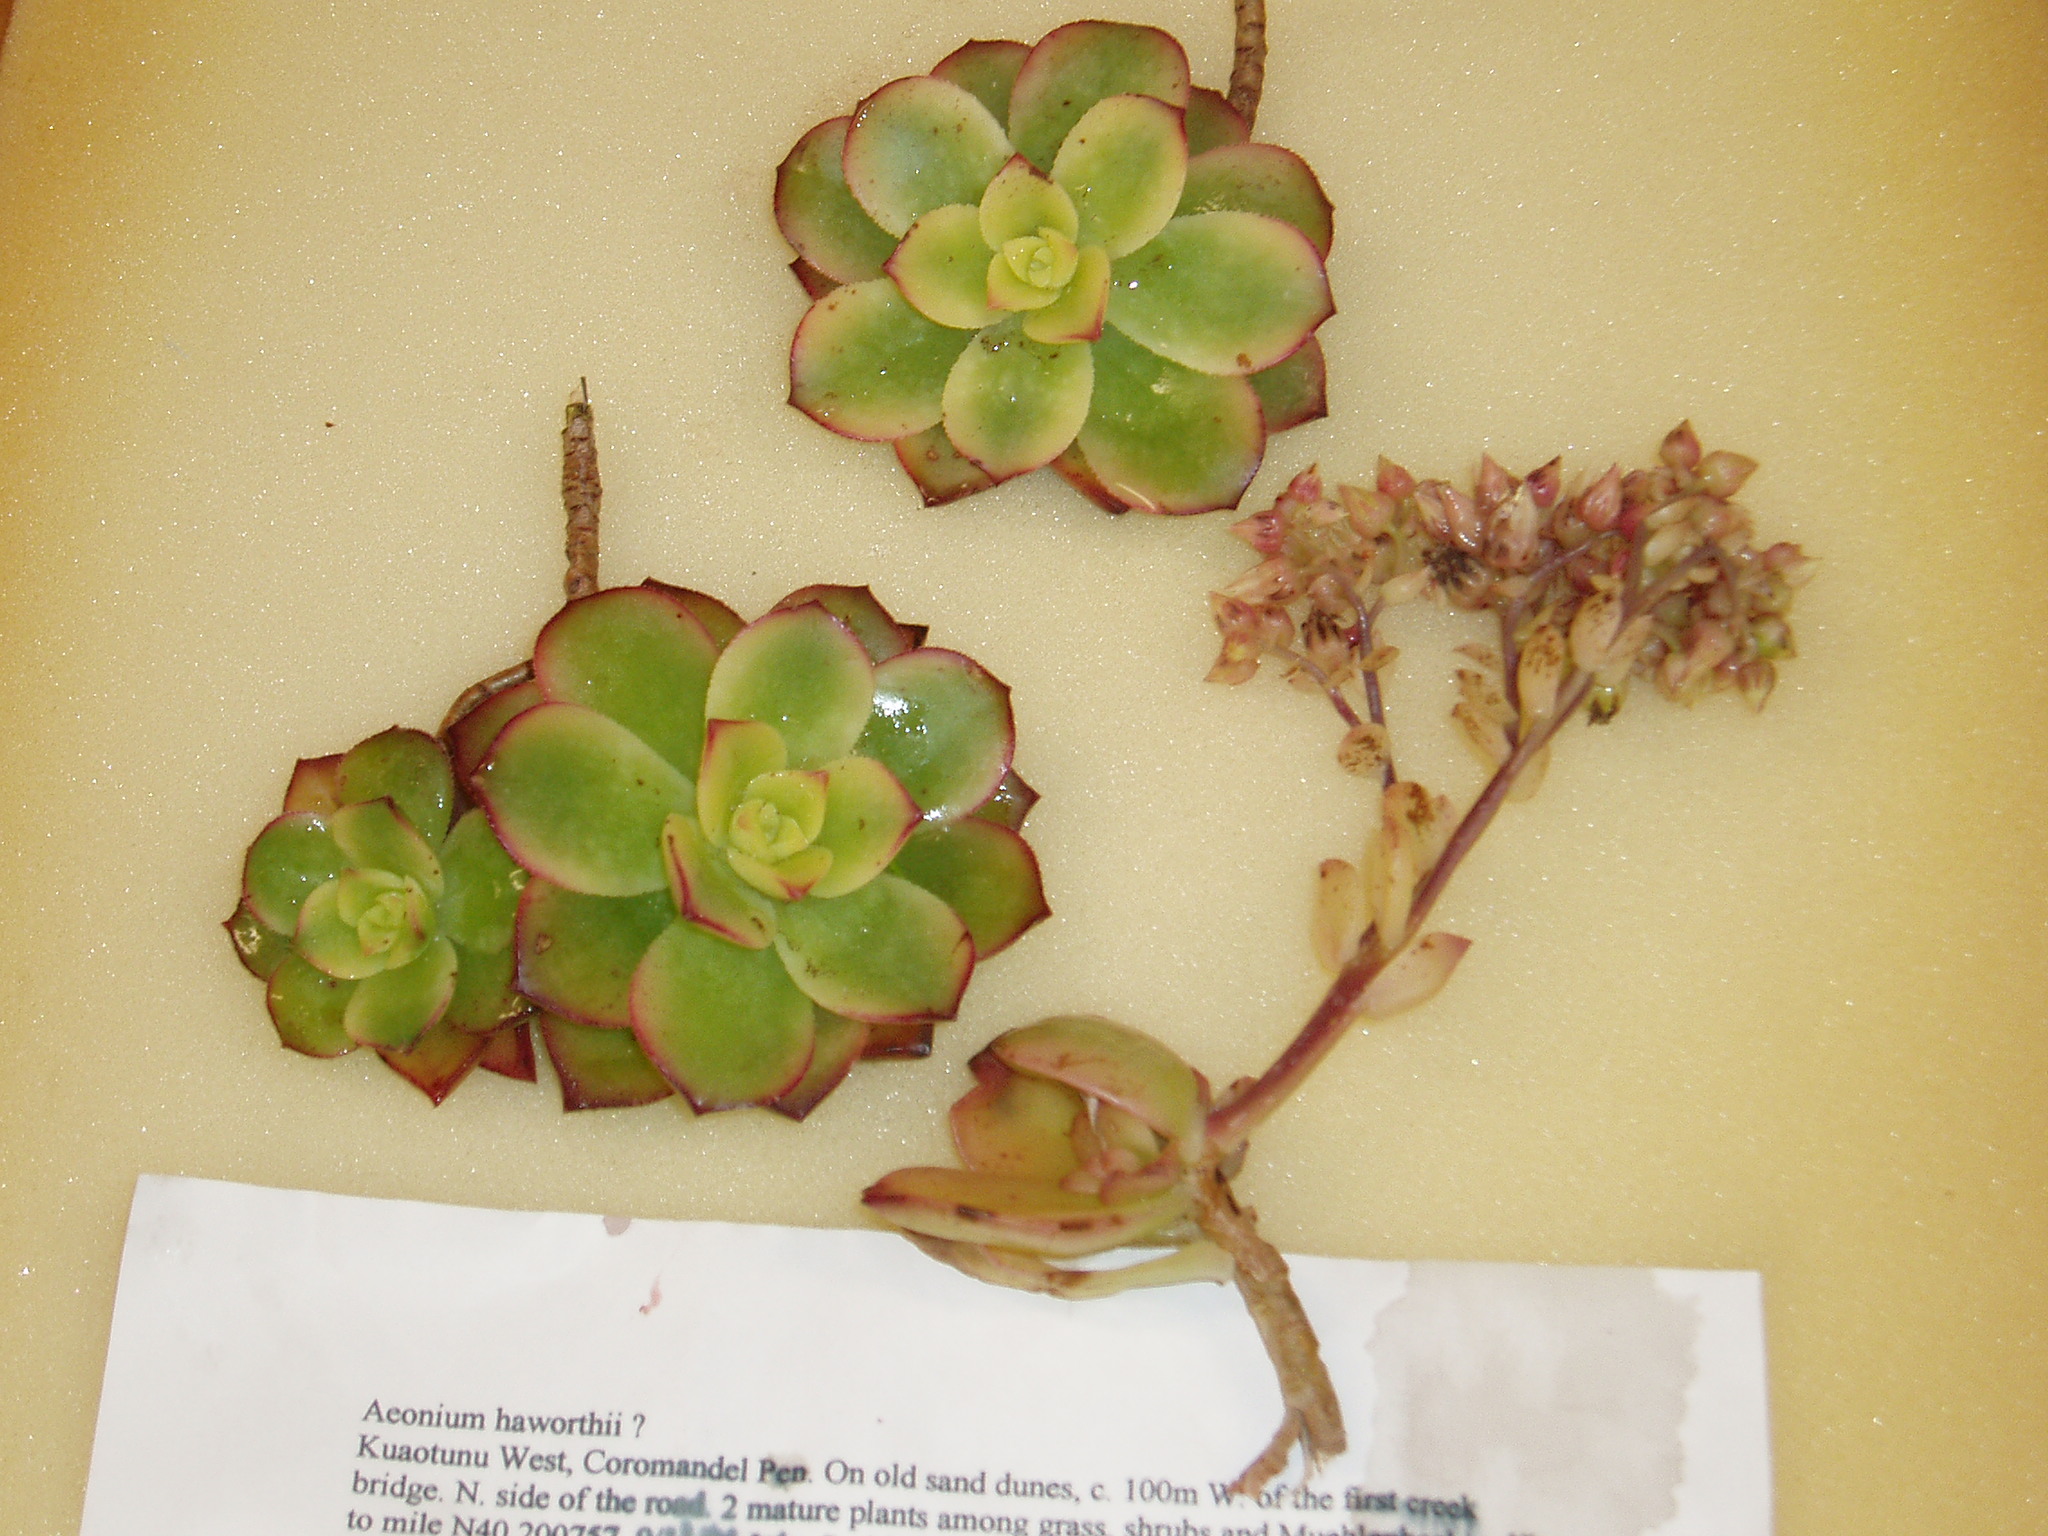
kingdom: Plantae
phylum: Tracheophyta
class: Magnoliopsida
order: Saxifragales
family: Crassulaceae
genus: Aeonium
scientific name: Aeonium haworthii
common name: Haworth's aeonium
